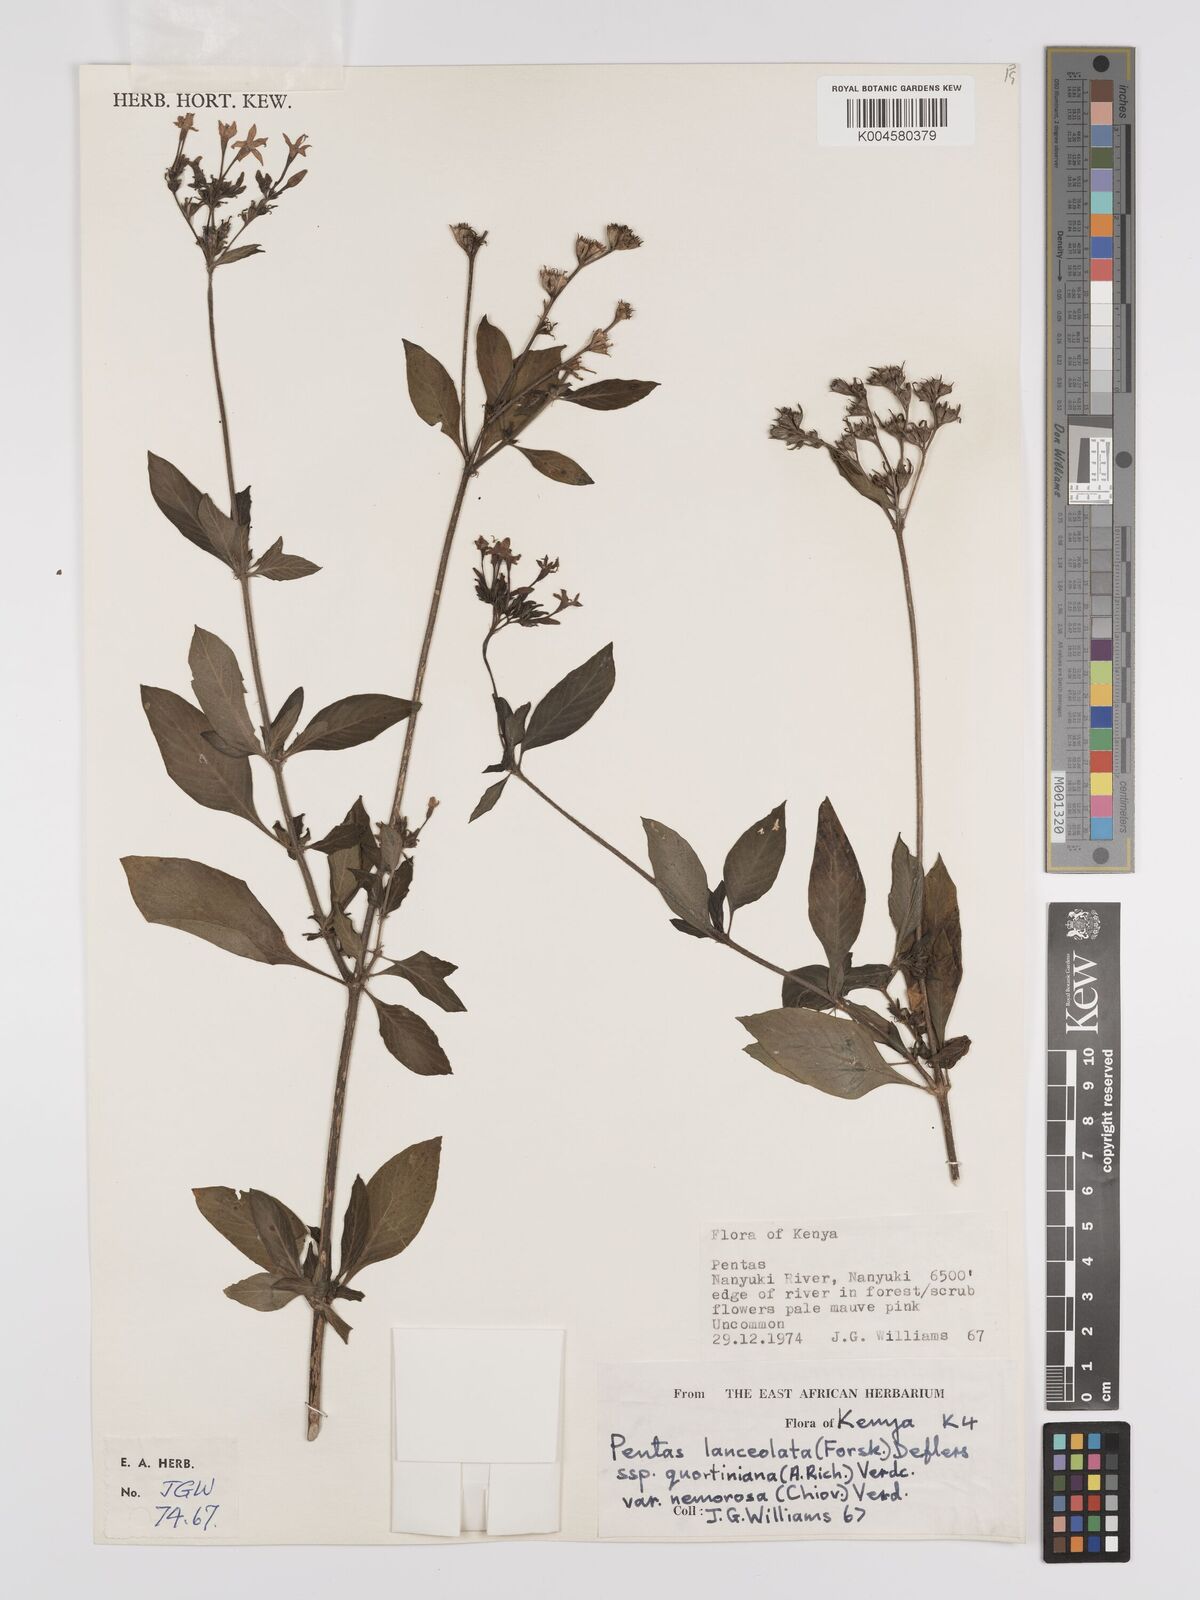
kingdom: Plantae
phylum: Tracheophyta
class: Magnoliopsida
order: Gentianales
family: Rubiaceae
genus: Pentas
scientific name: Pentas lanceolata
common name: Egyptian starcluster
